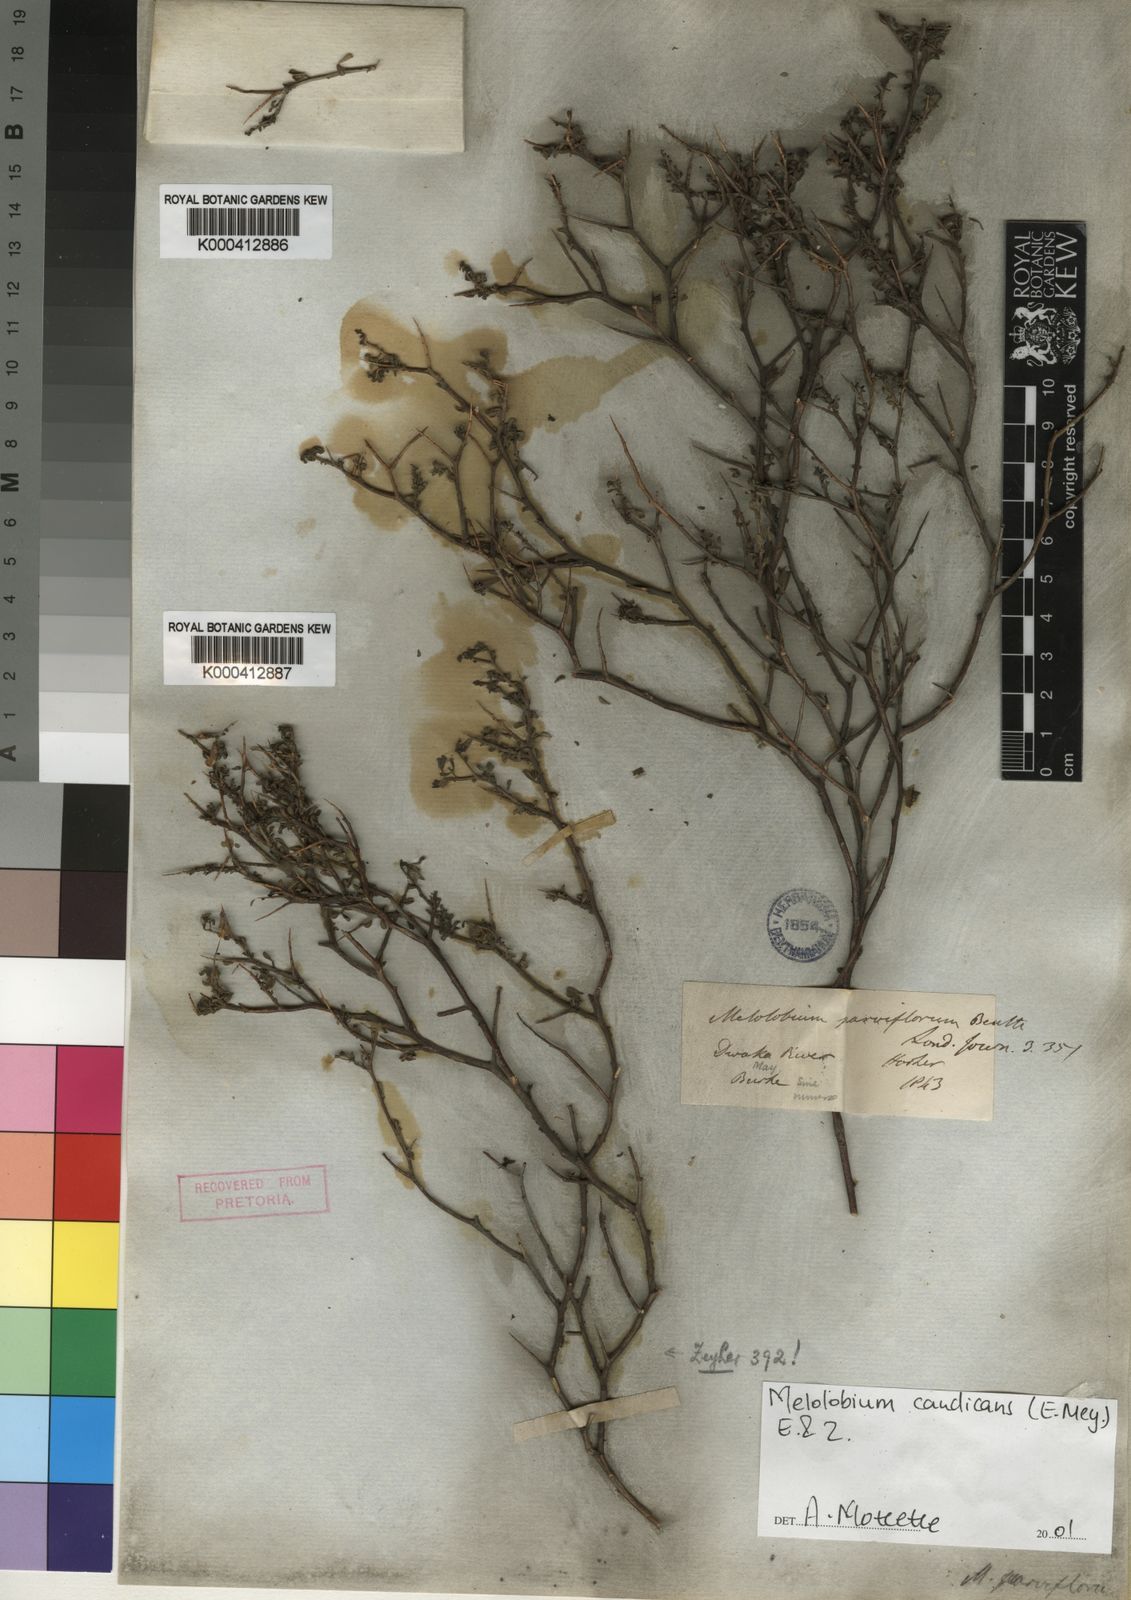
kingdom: Plantae
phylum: Tracheophyta
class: Magnoliopsida
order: Fabales
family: Fabaceae
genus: Melolobium
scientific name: Melolobium candicans
